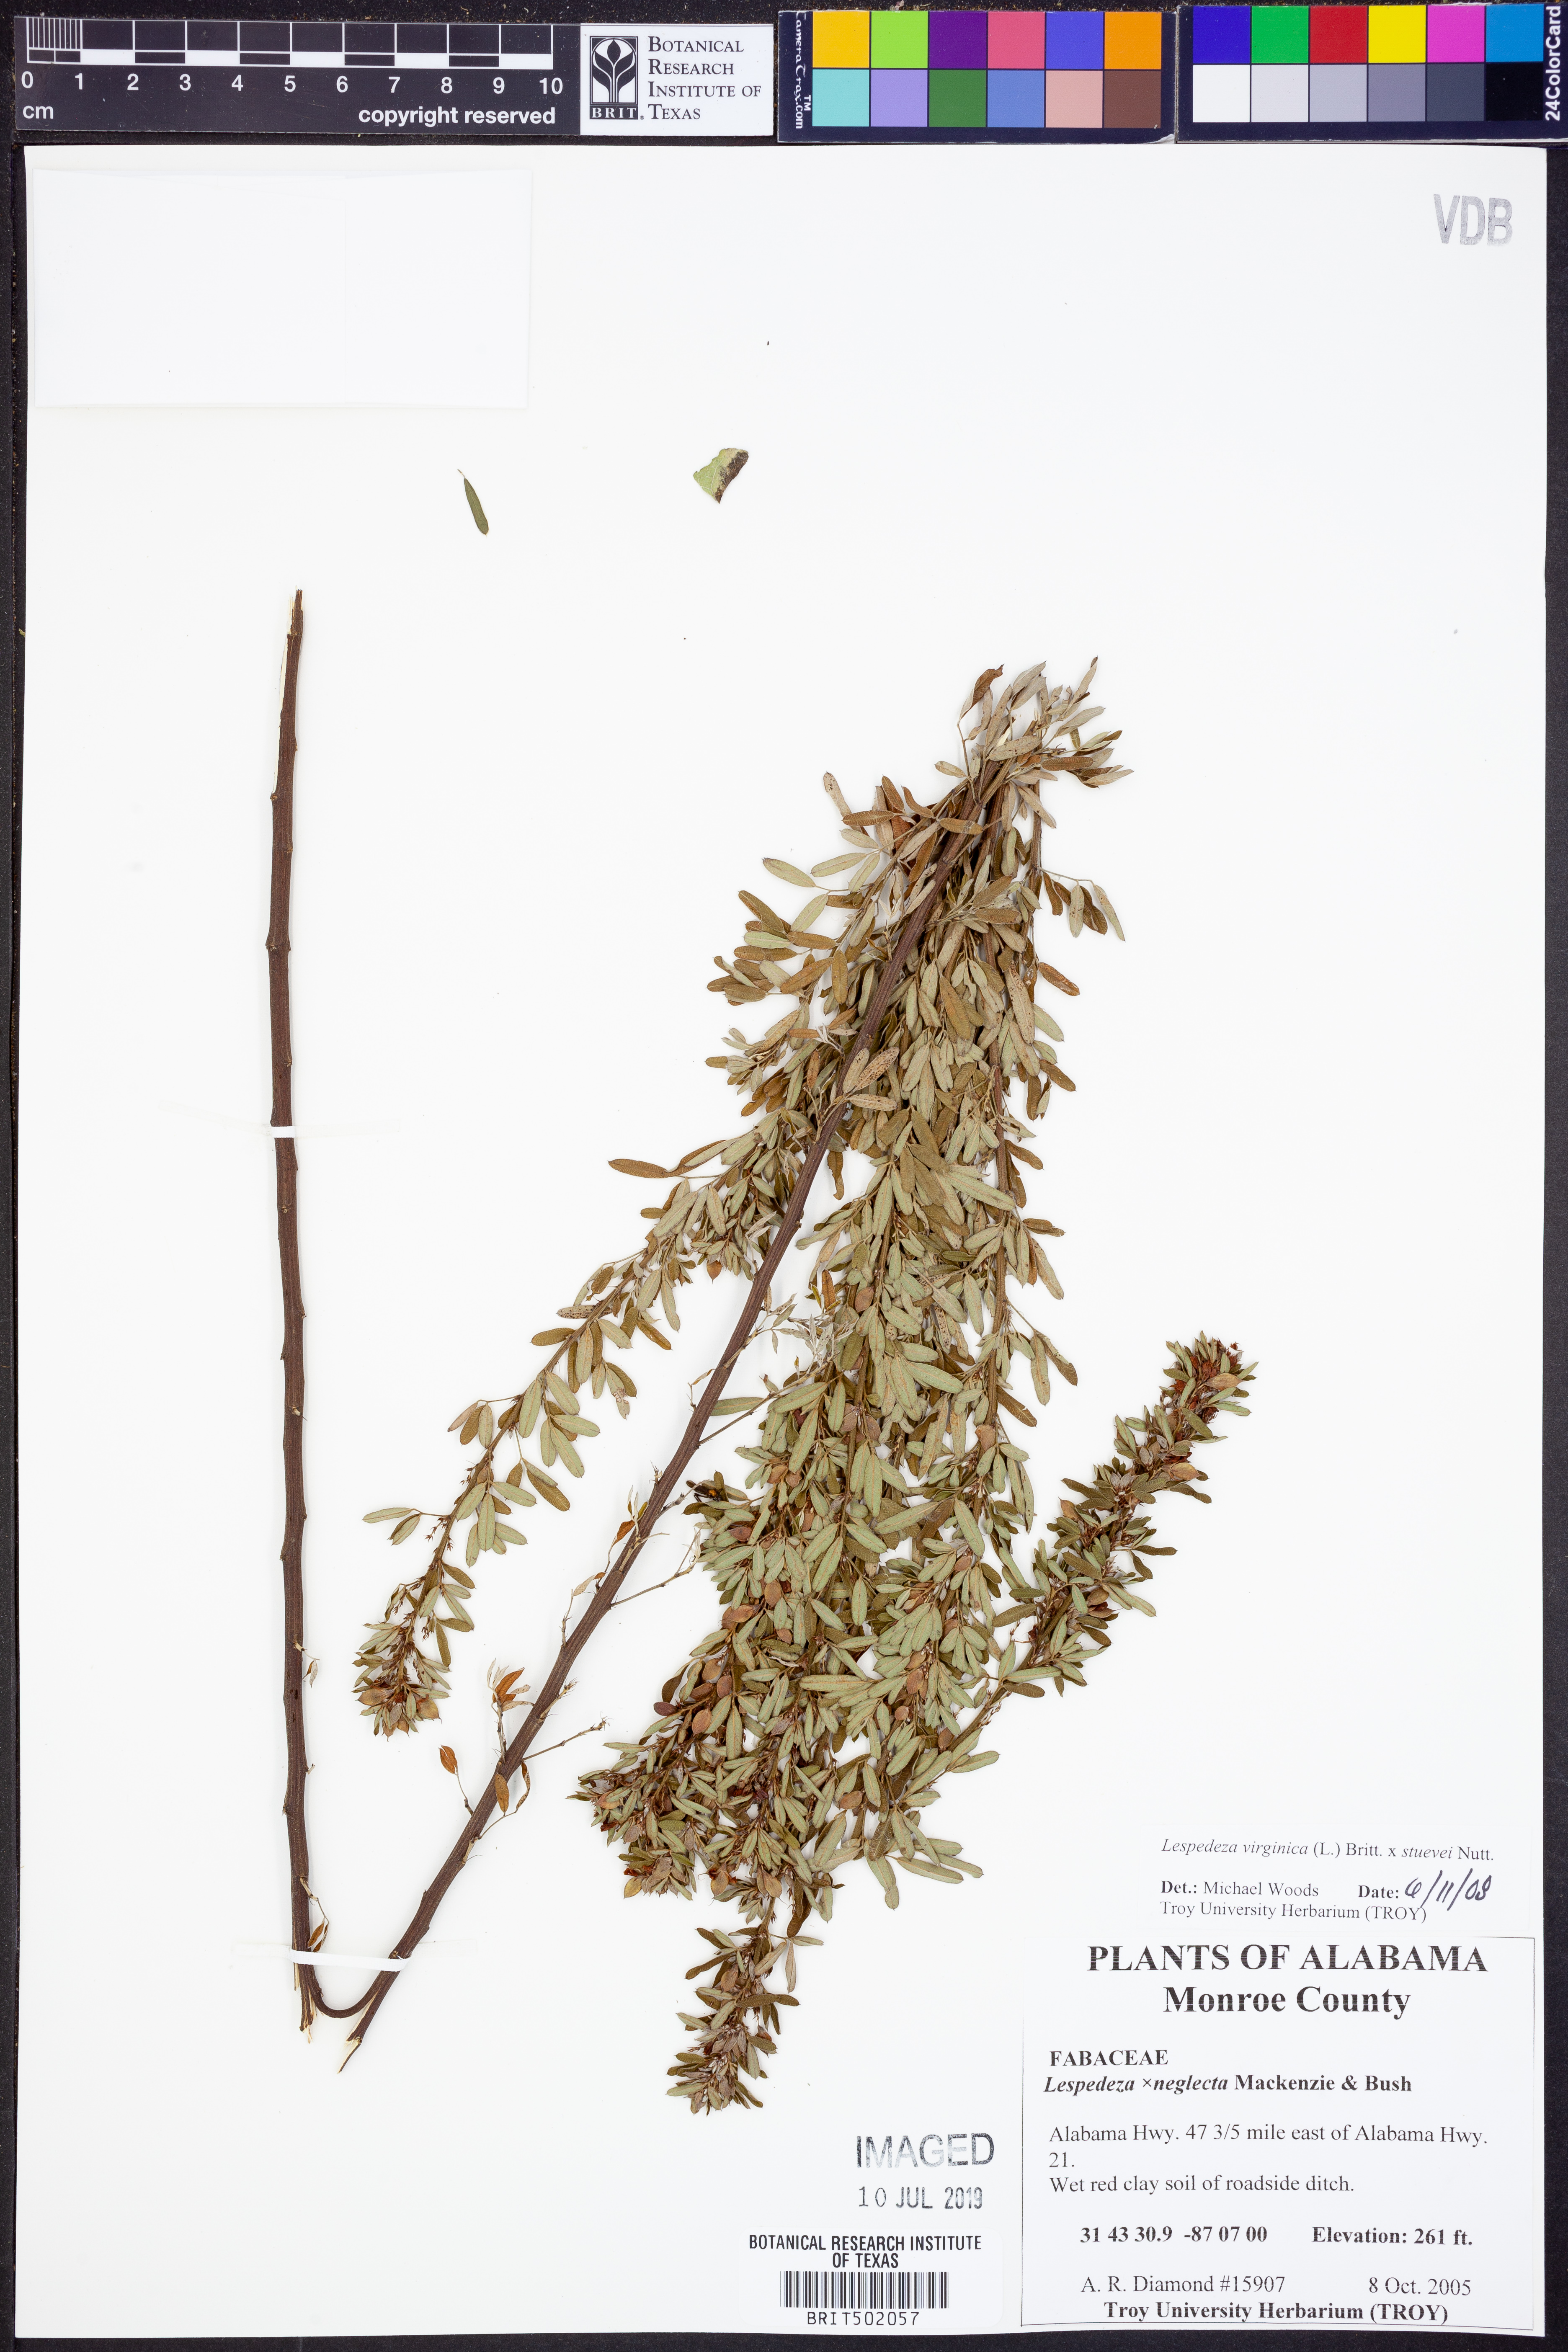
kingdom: Plantae
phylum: Tracheophyta
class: Magnoliopsida
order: Fabales
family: Fabaceae
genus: Lespedeza
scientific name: Lespedeza virginica
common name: Slender bush-clover
